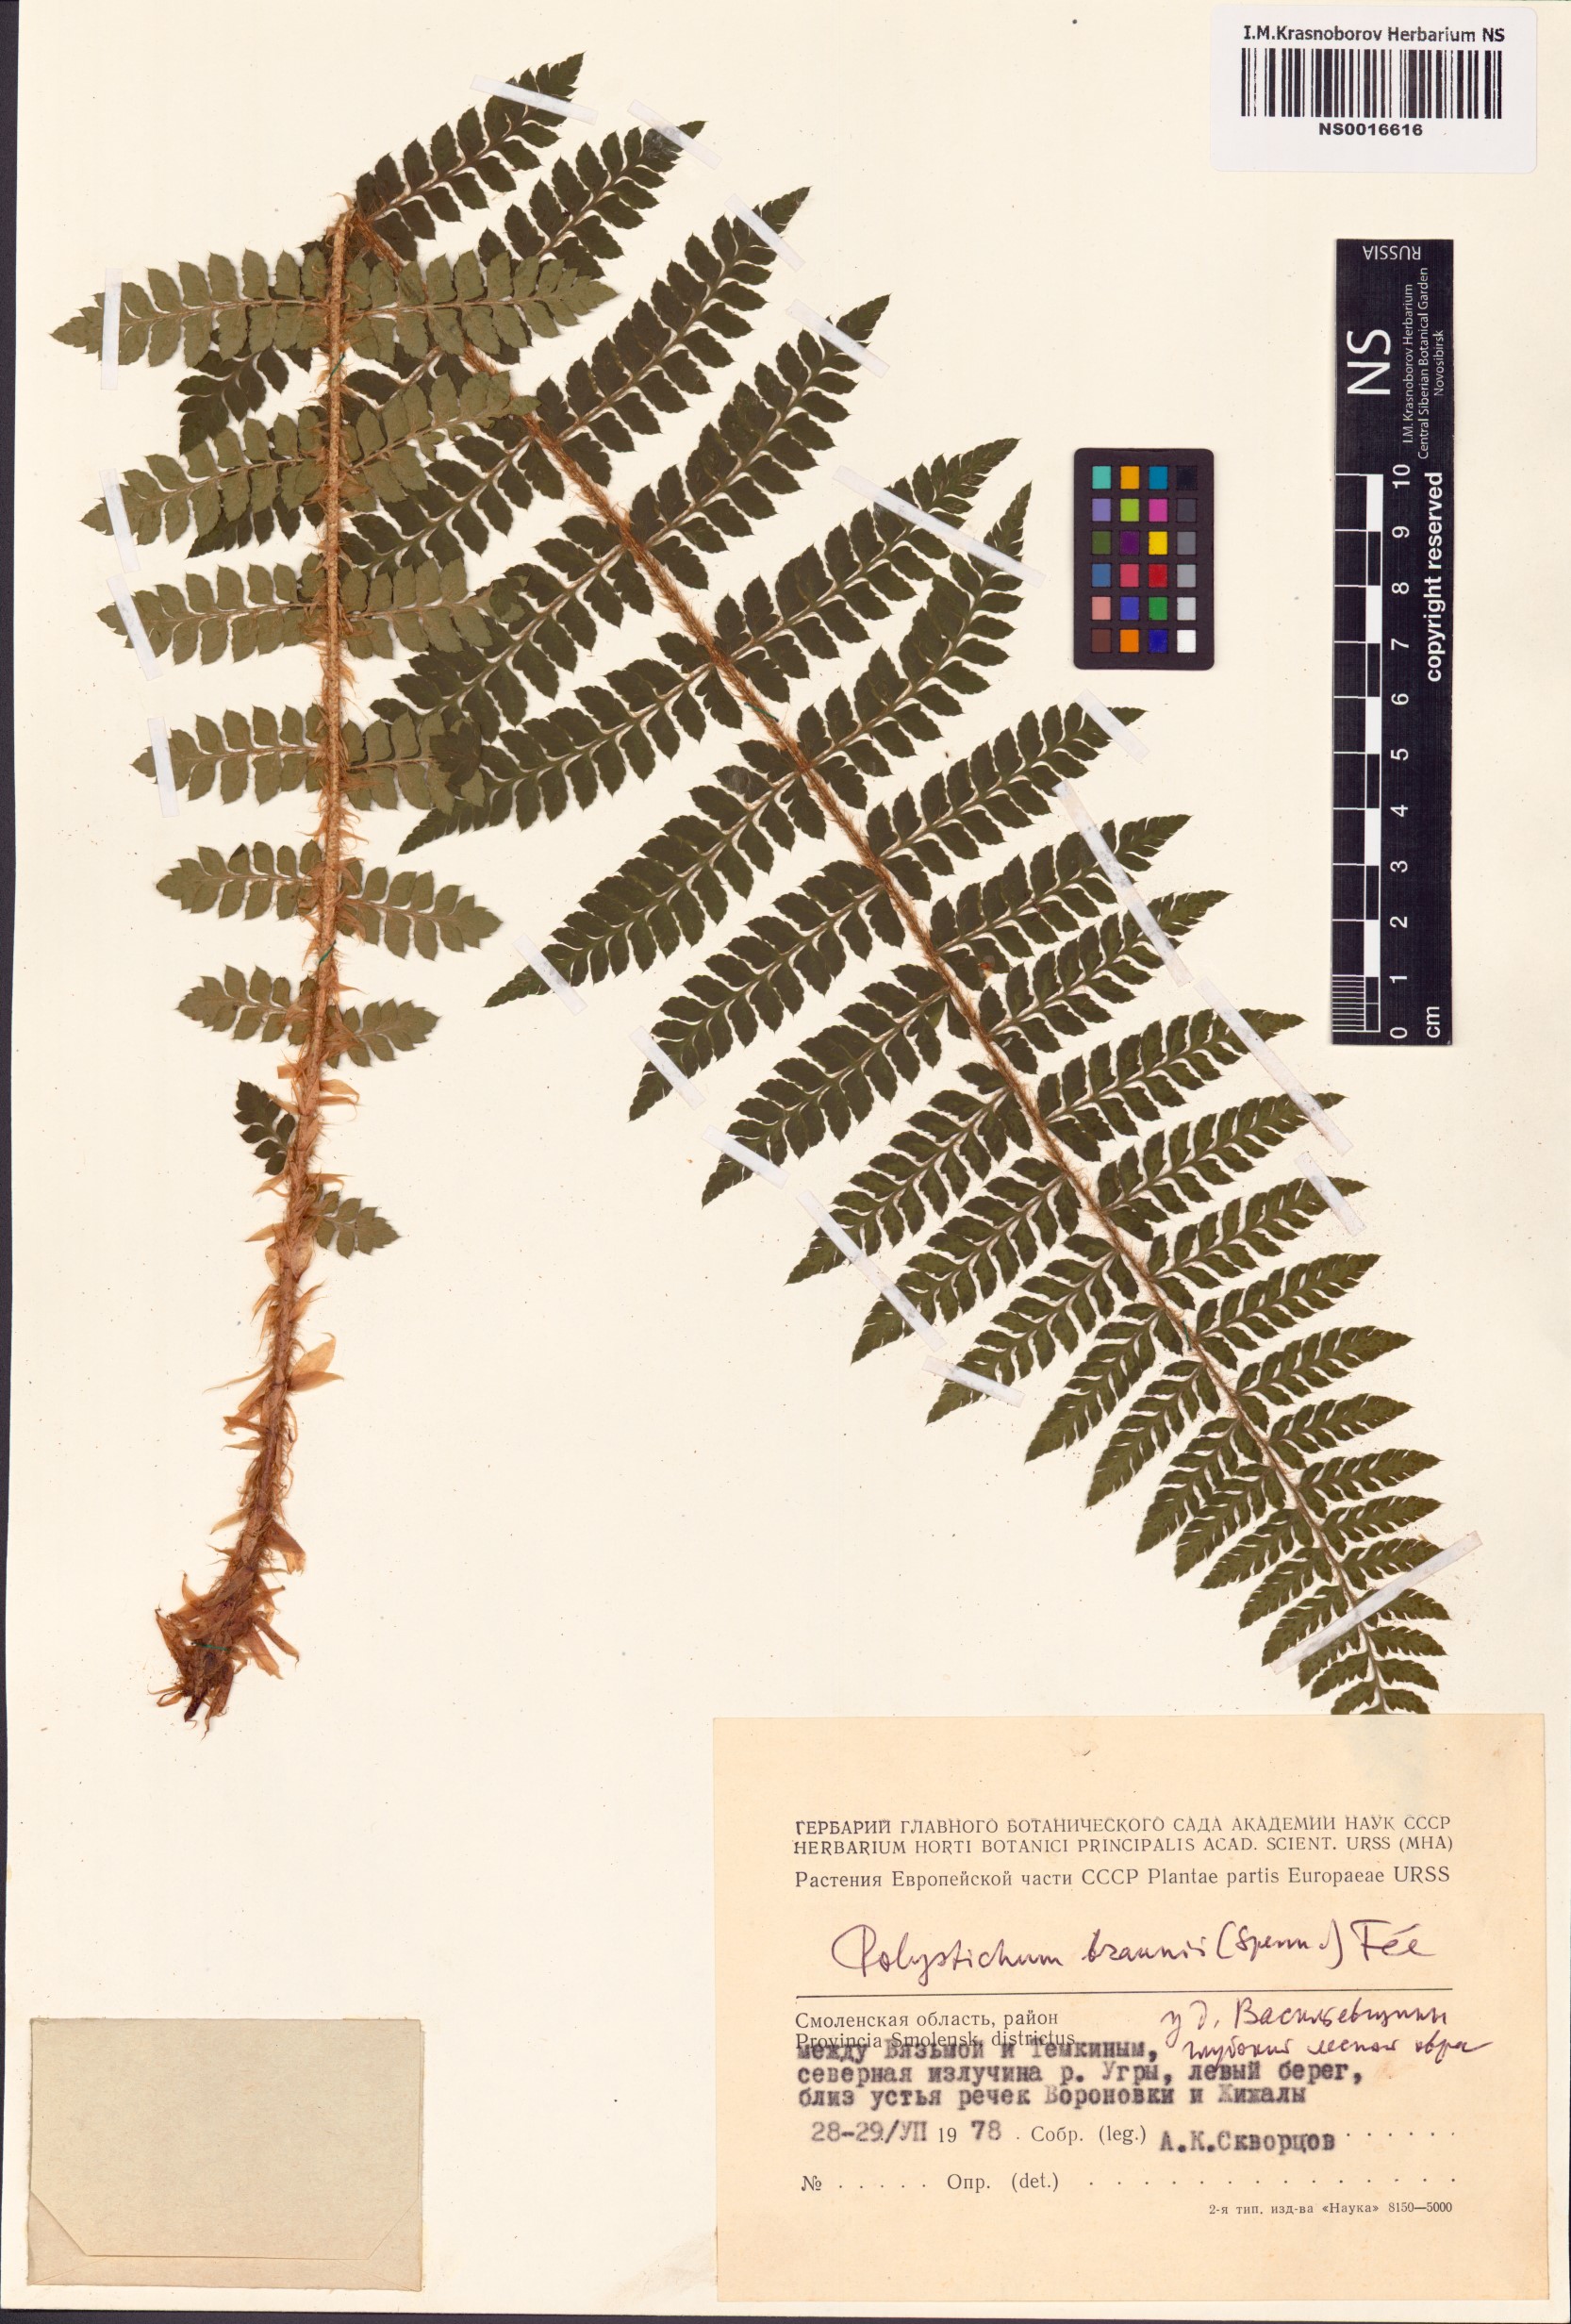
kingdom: Plantae
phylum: Tracheophyta
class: Polypodiopsida
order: Polypodiales
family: Dryopteridaceae
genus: Polystichum
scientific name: Polystichum braunii
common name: Braun's holly fern
